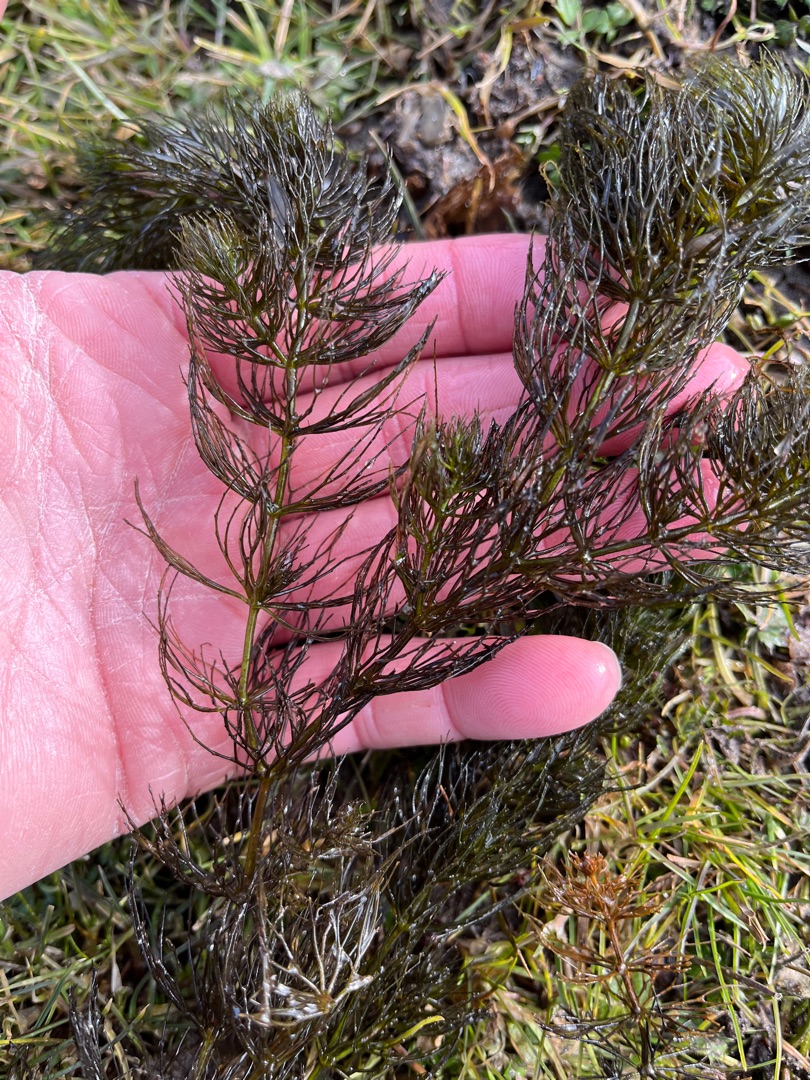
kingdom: Plantae
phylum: Tracheophyta
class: Magnoliopsida
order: Ceratophyllales
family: Ceratophyllaceae
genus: Ceratophyllum
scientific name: Ceratophyllum submersum
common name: Tornløs hornblad
